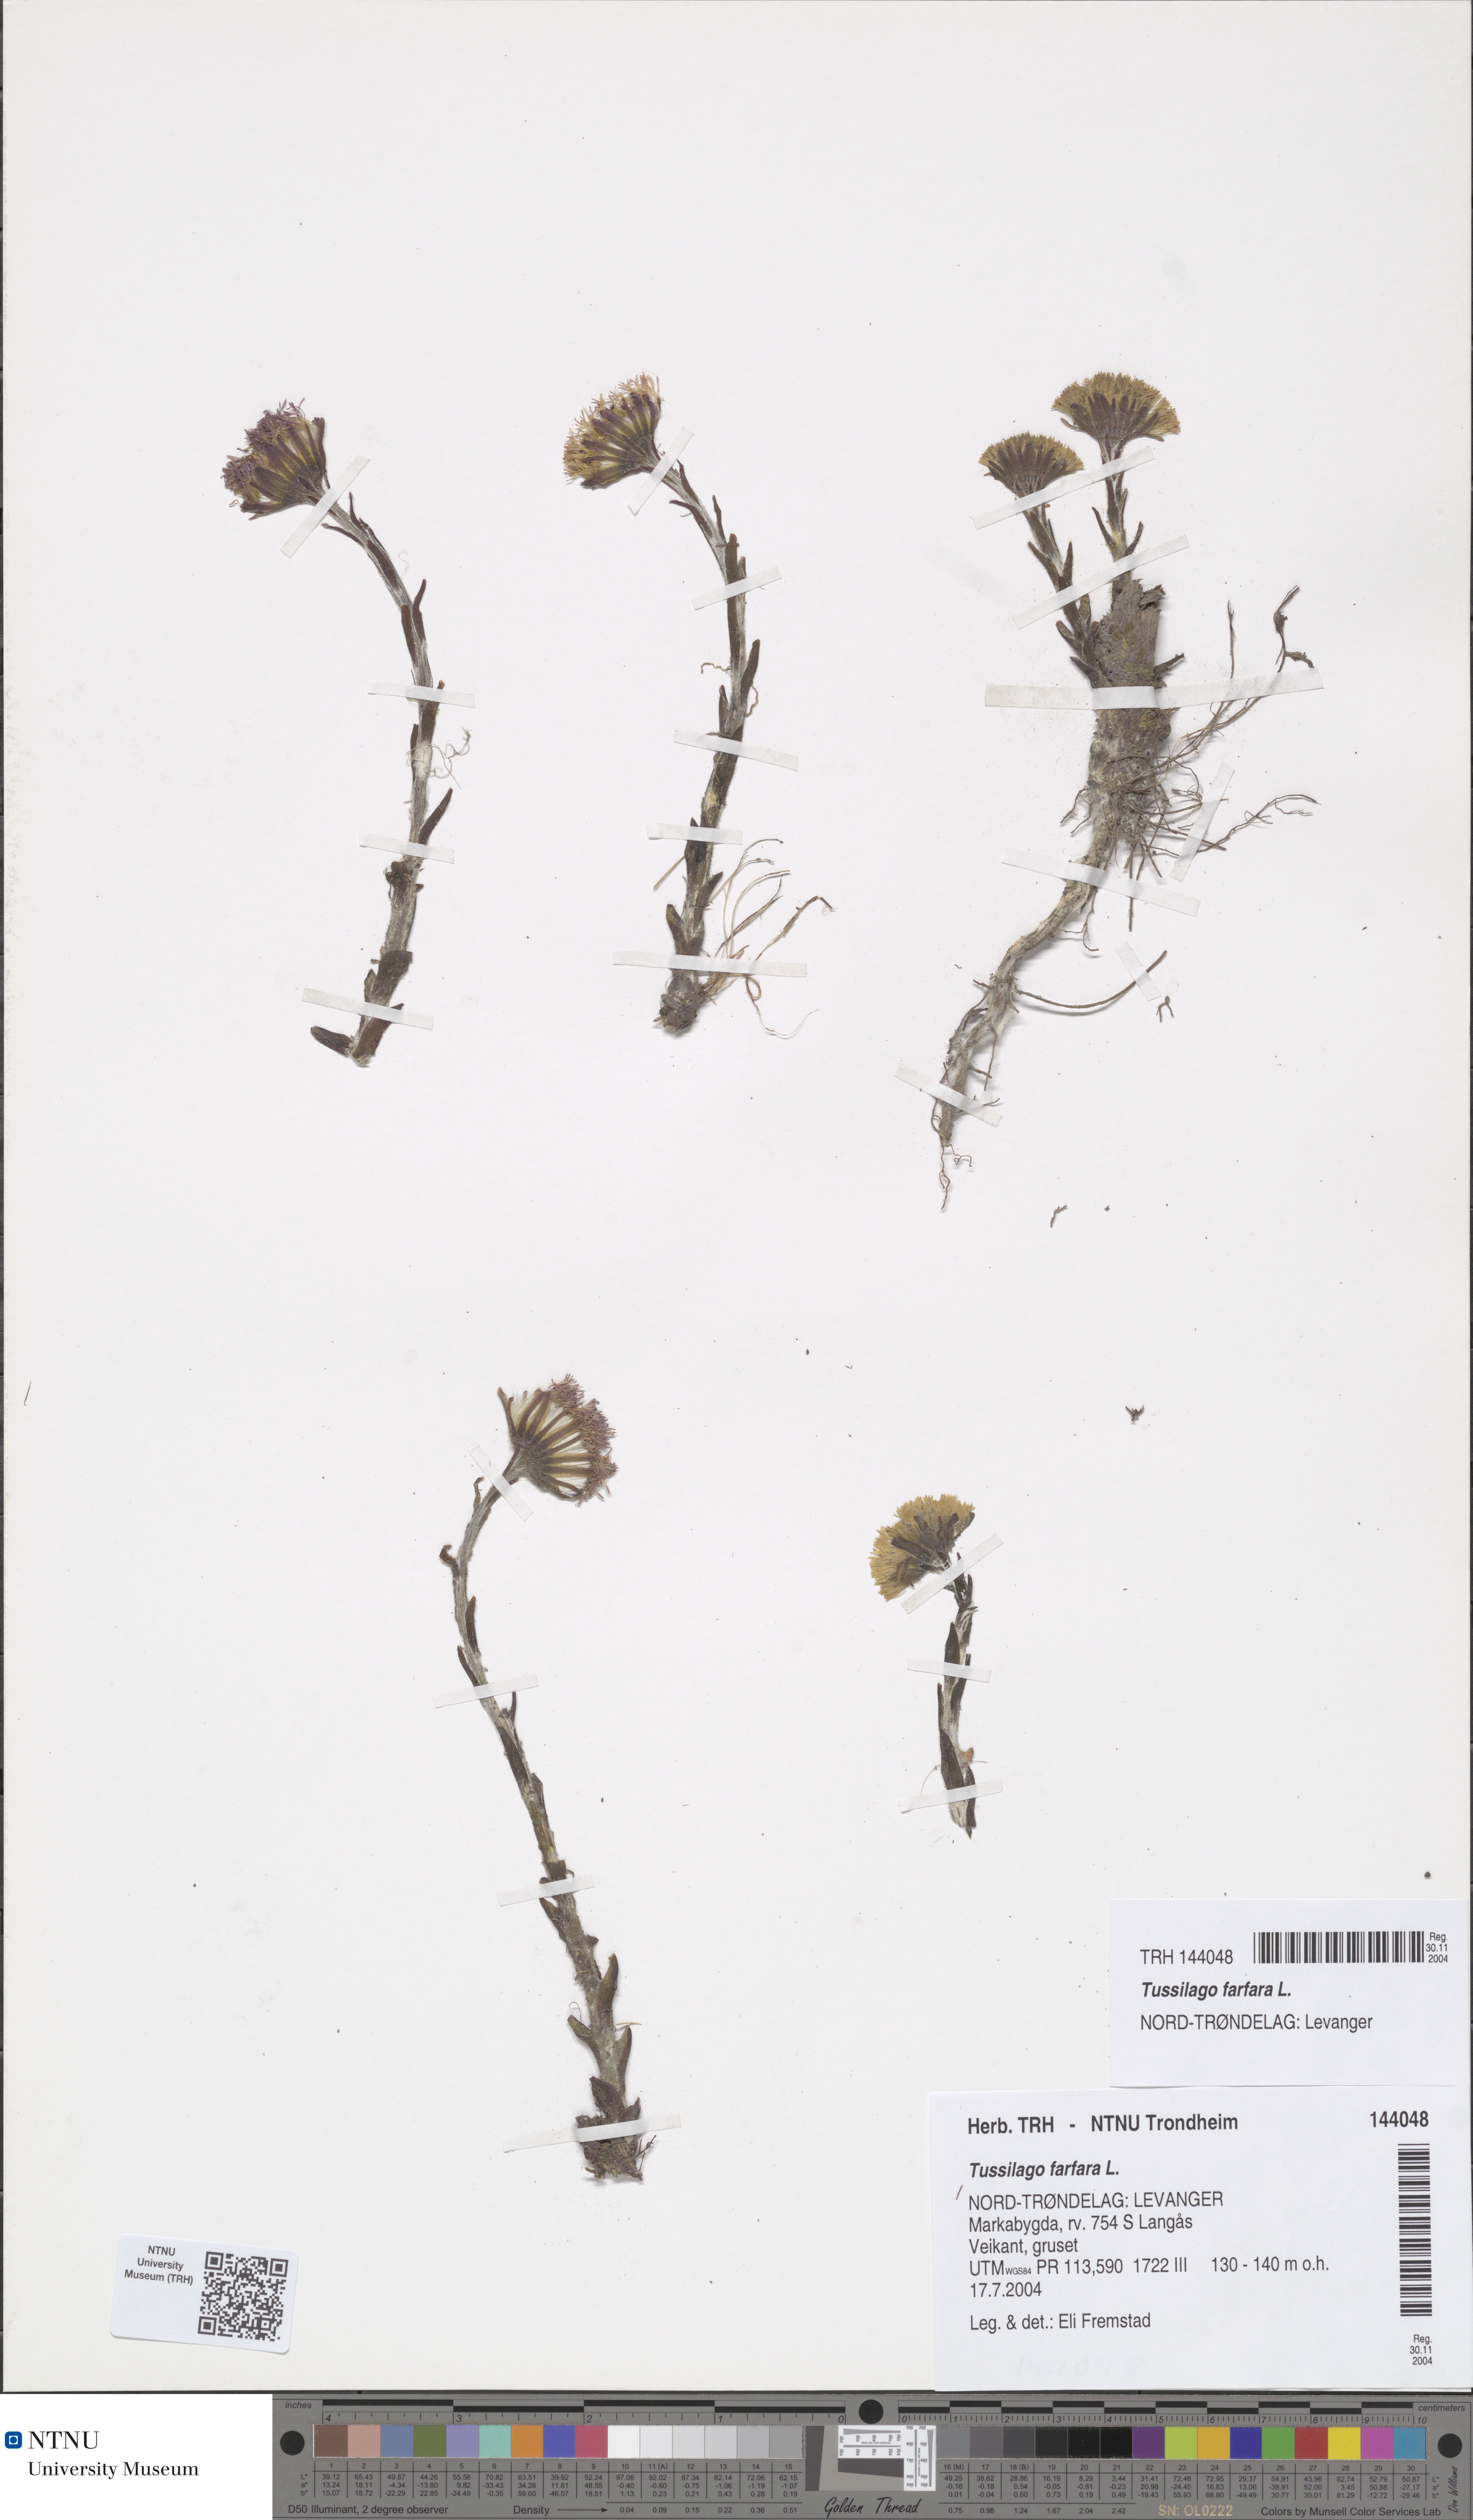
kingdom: Plantae
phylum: Tracheophyta
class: Magnoliopsida
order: Asterales
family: Asteraceae
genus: Tussilago
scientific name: Tussilago farfara
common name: Coltsfoot
